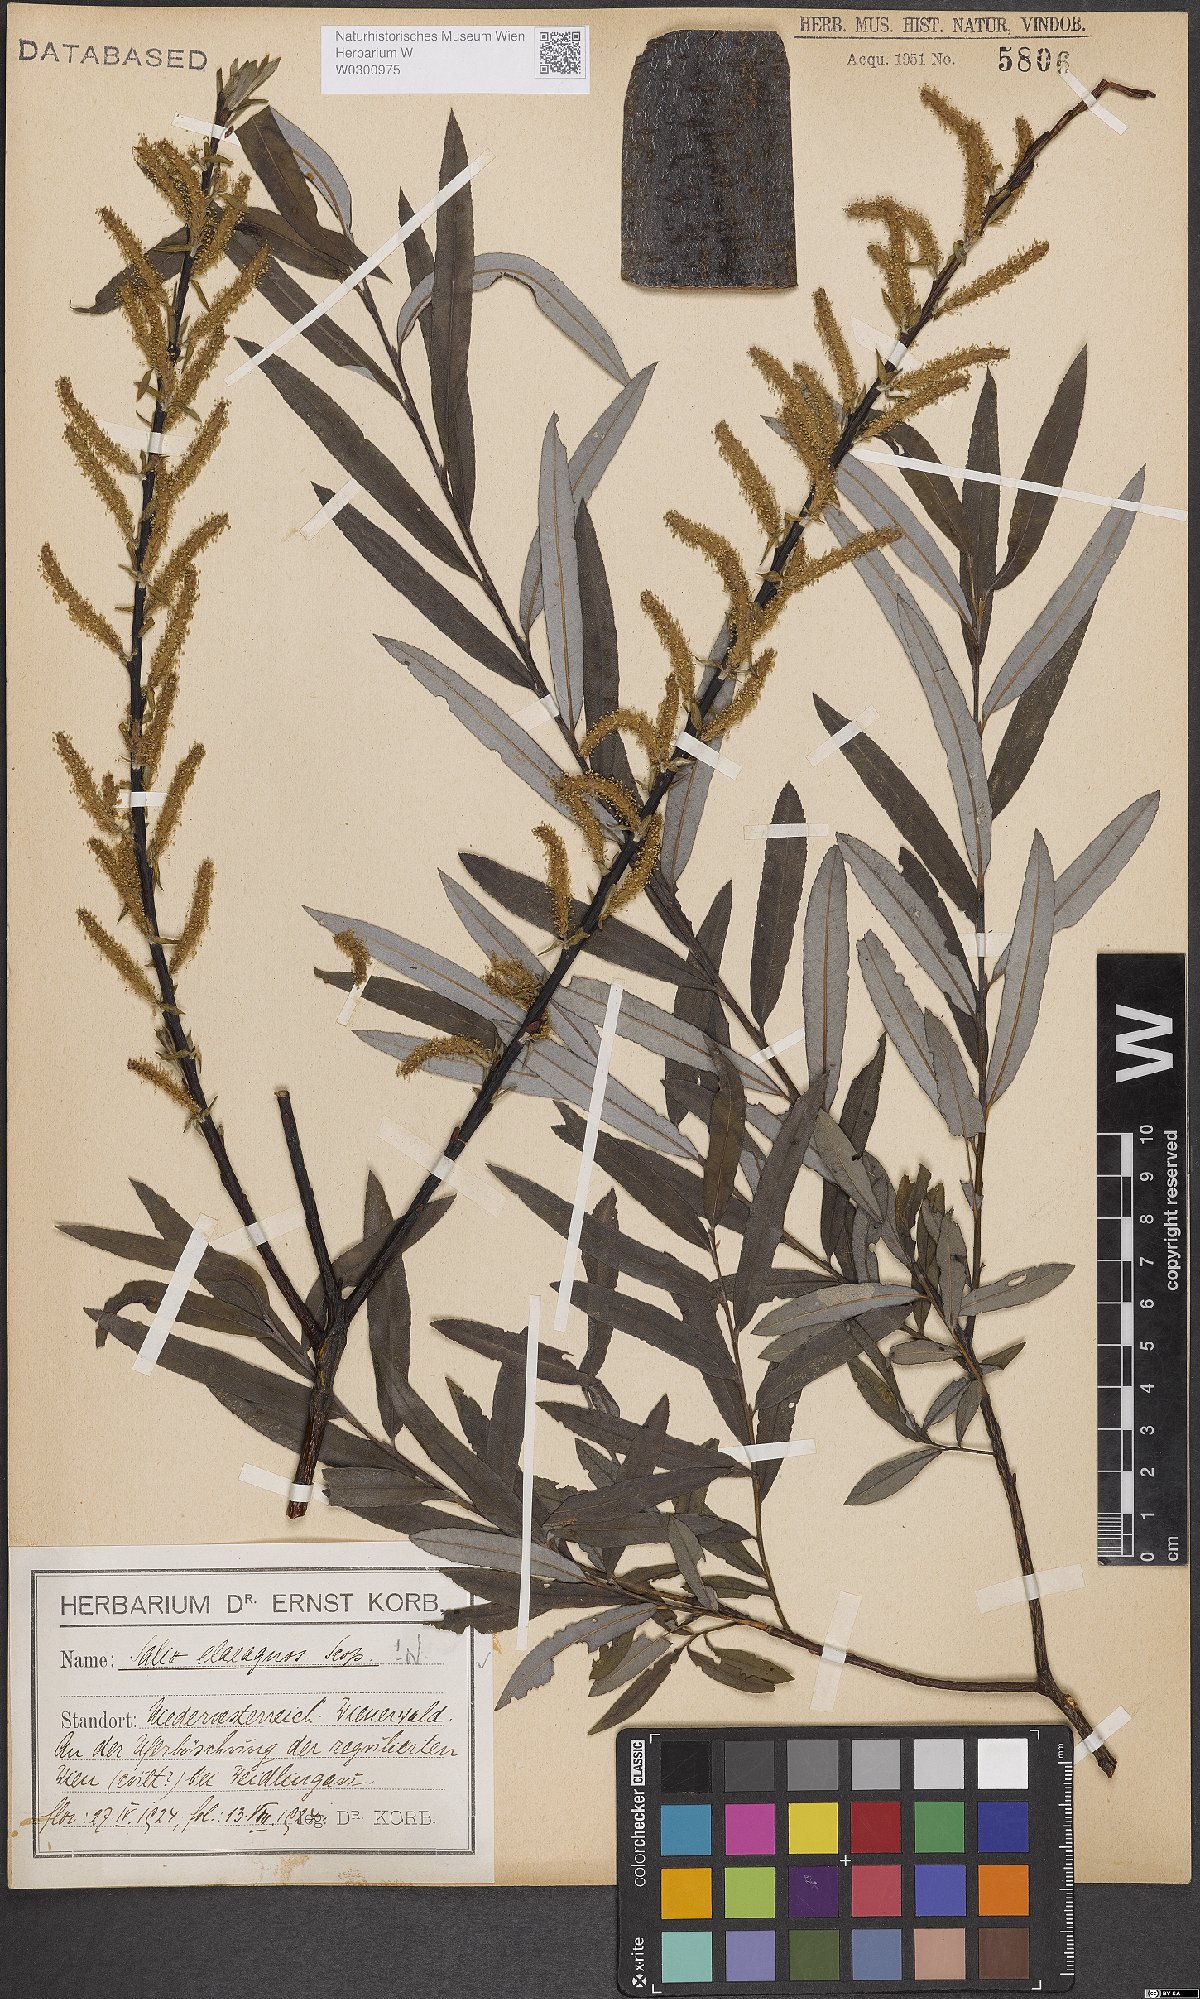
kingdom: Plantae
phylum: Tracheophyta
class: Magnoliopsida
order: Malpighiales
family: Salicaceae
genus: Salix
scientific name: Salix eleagnos
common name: Elaeagnus willow
